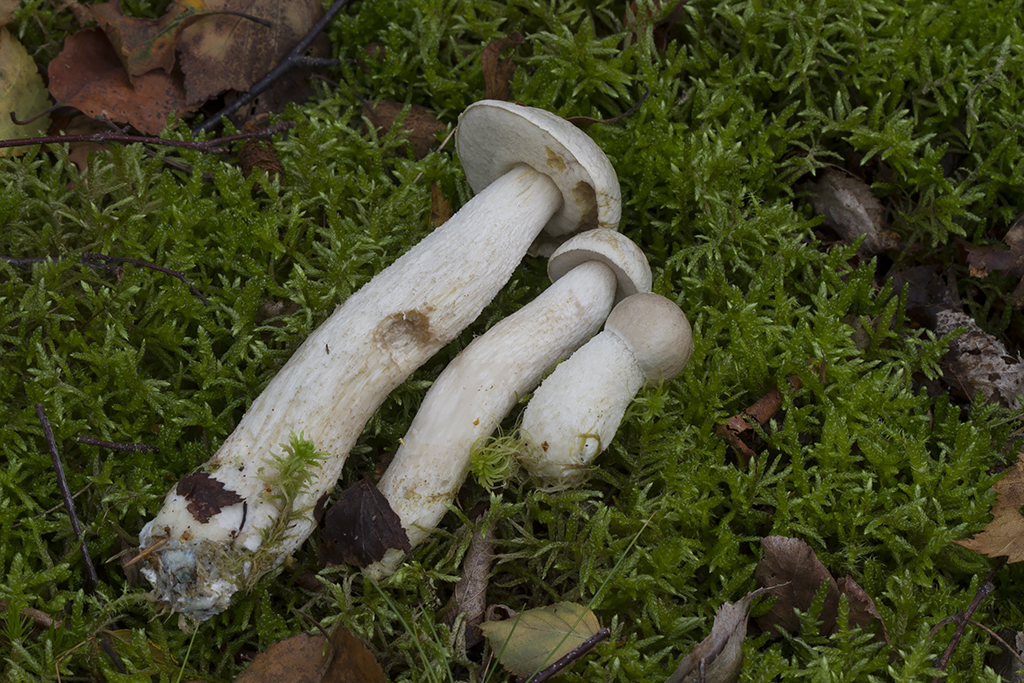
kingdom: Fungi
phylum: Basidiomycota
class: Agaricomycetes
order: Boletales
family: Boletaceae
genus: Leccinum
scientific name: Leccinum scabrum
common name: hvid skælrørhat
